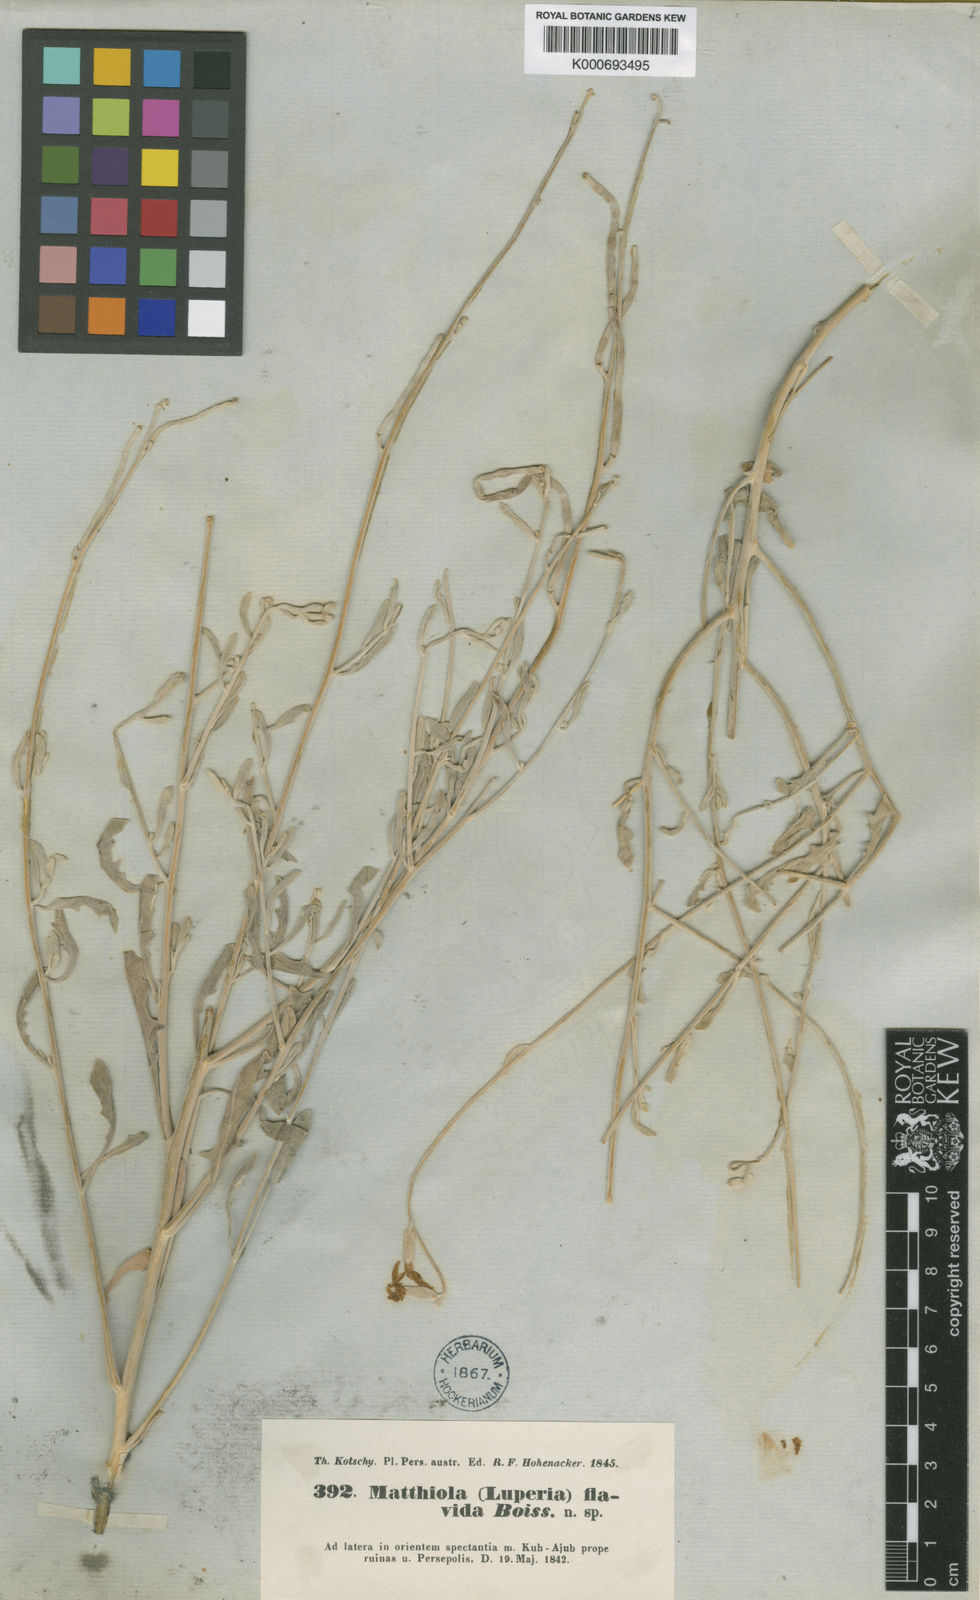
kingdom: Plantae
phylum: Tracheophyta
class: Magnoliopsida
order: Brassicales
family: Brassicaceae
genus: Matthiola
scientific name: Matthiola flavida
